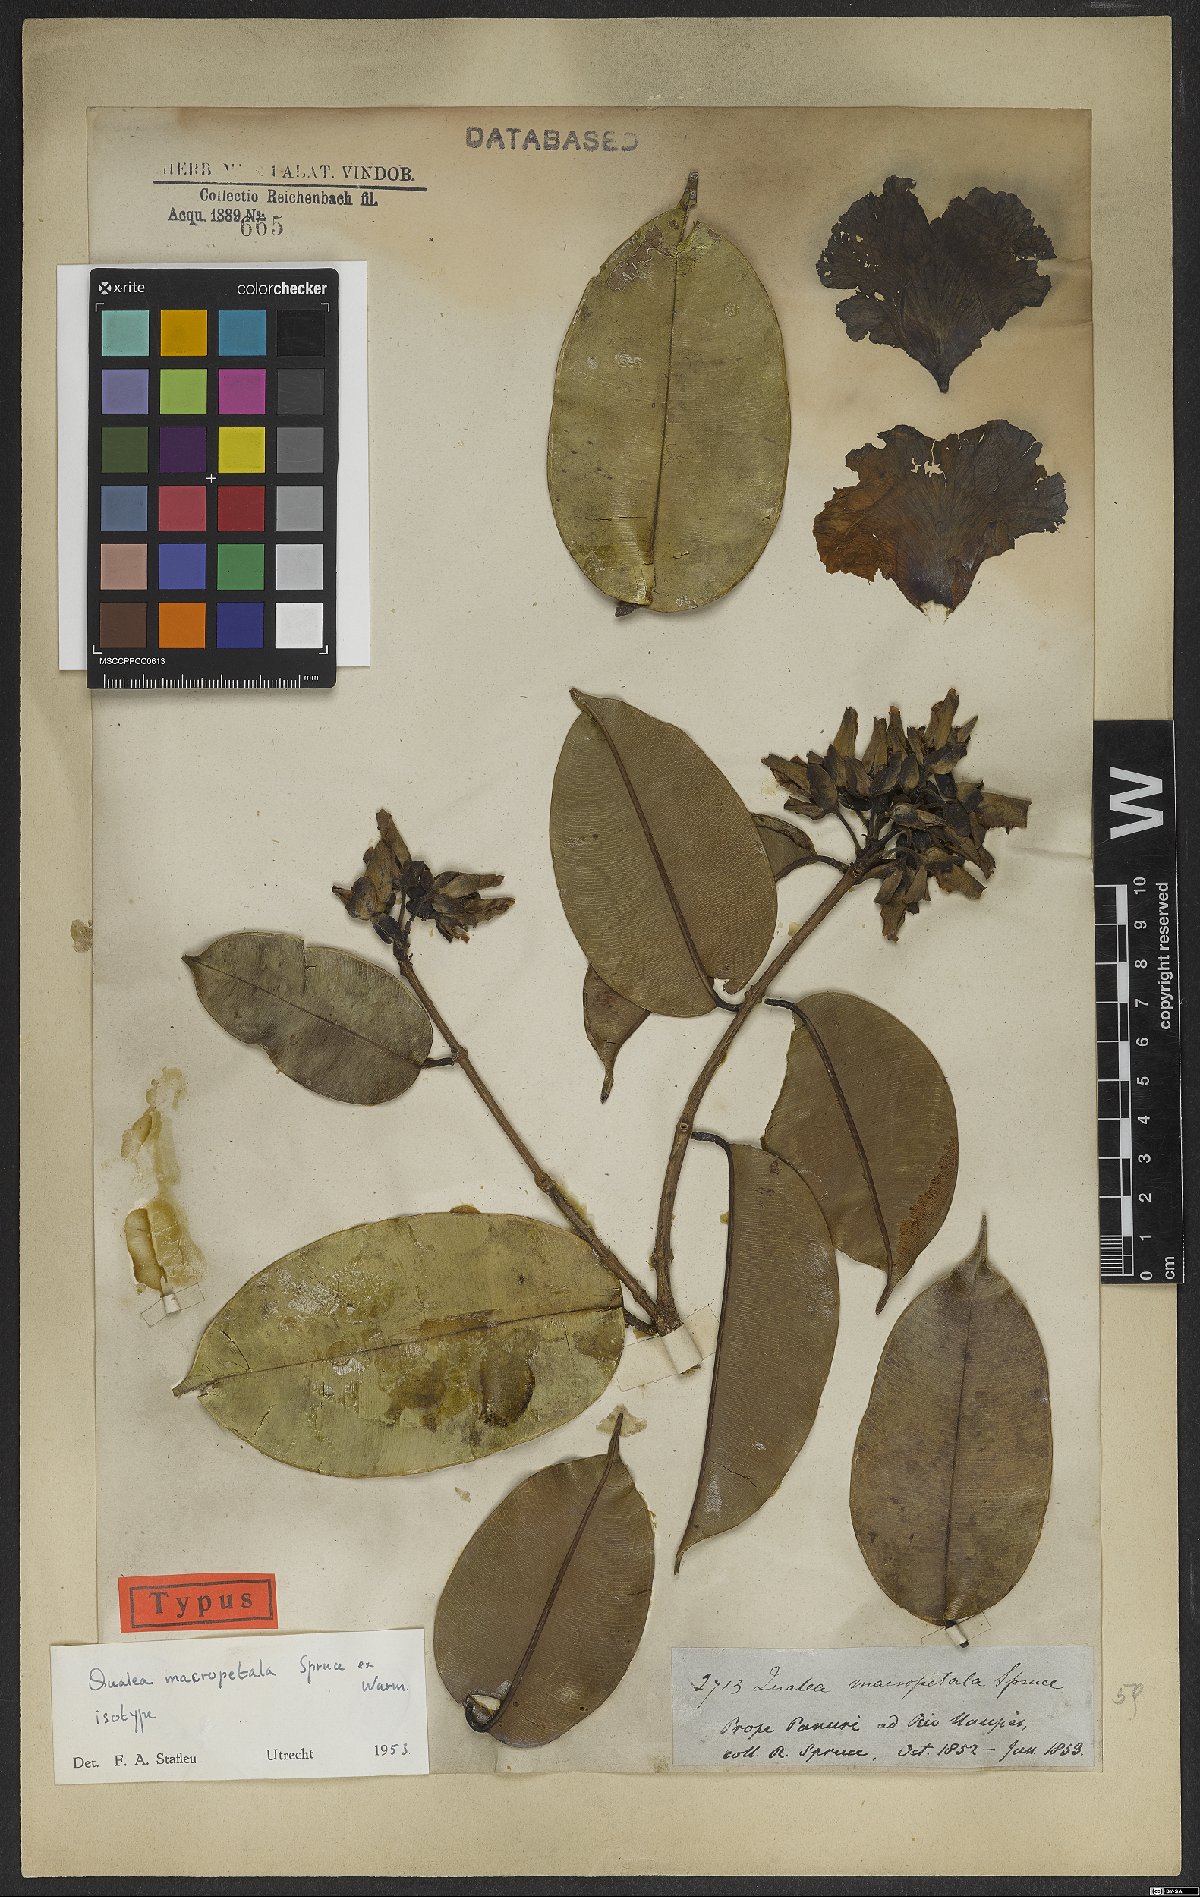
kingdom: Plantae
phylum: Tracheophyta
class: Magnoliopsida
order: Myrtales
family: Vochysiaceae
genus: Qualea
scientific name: Qualea macropetala
